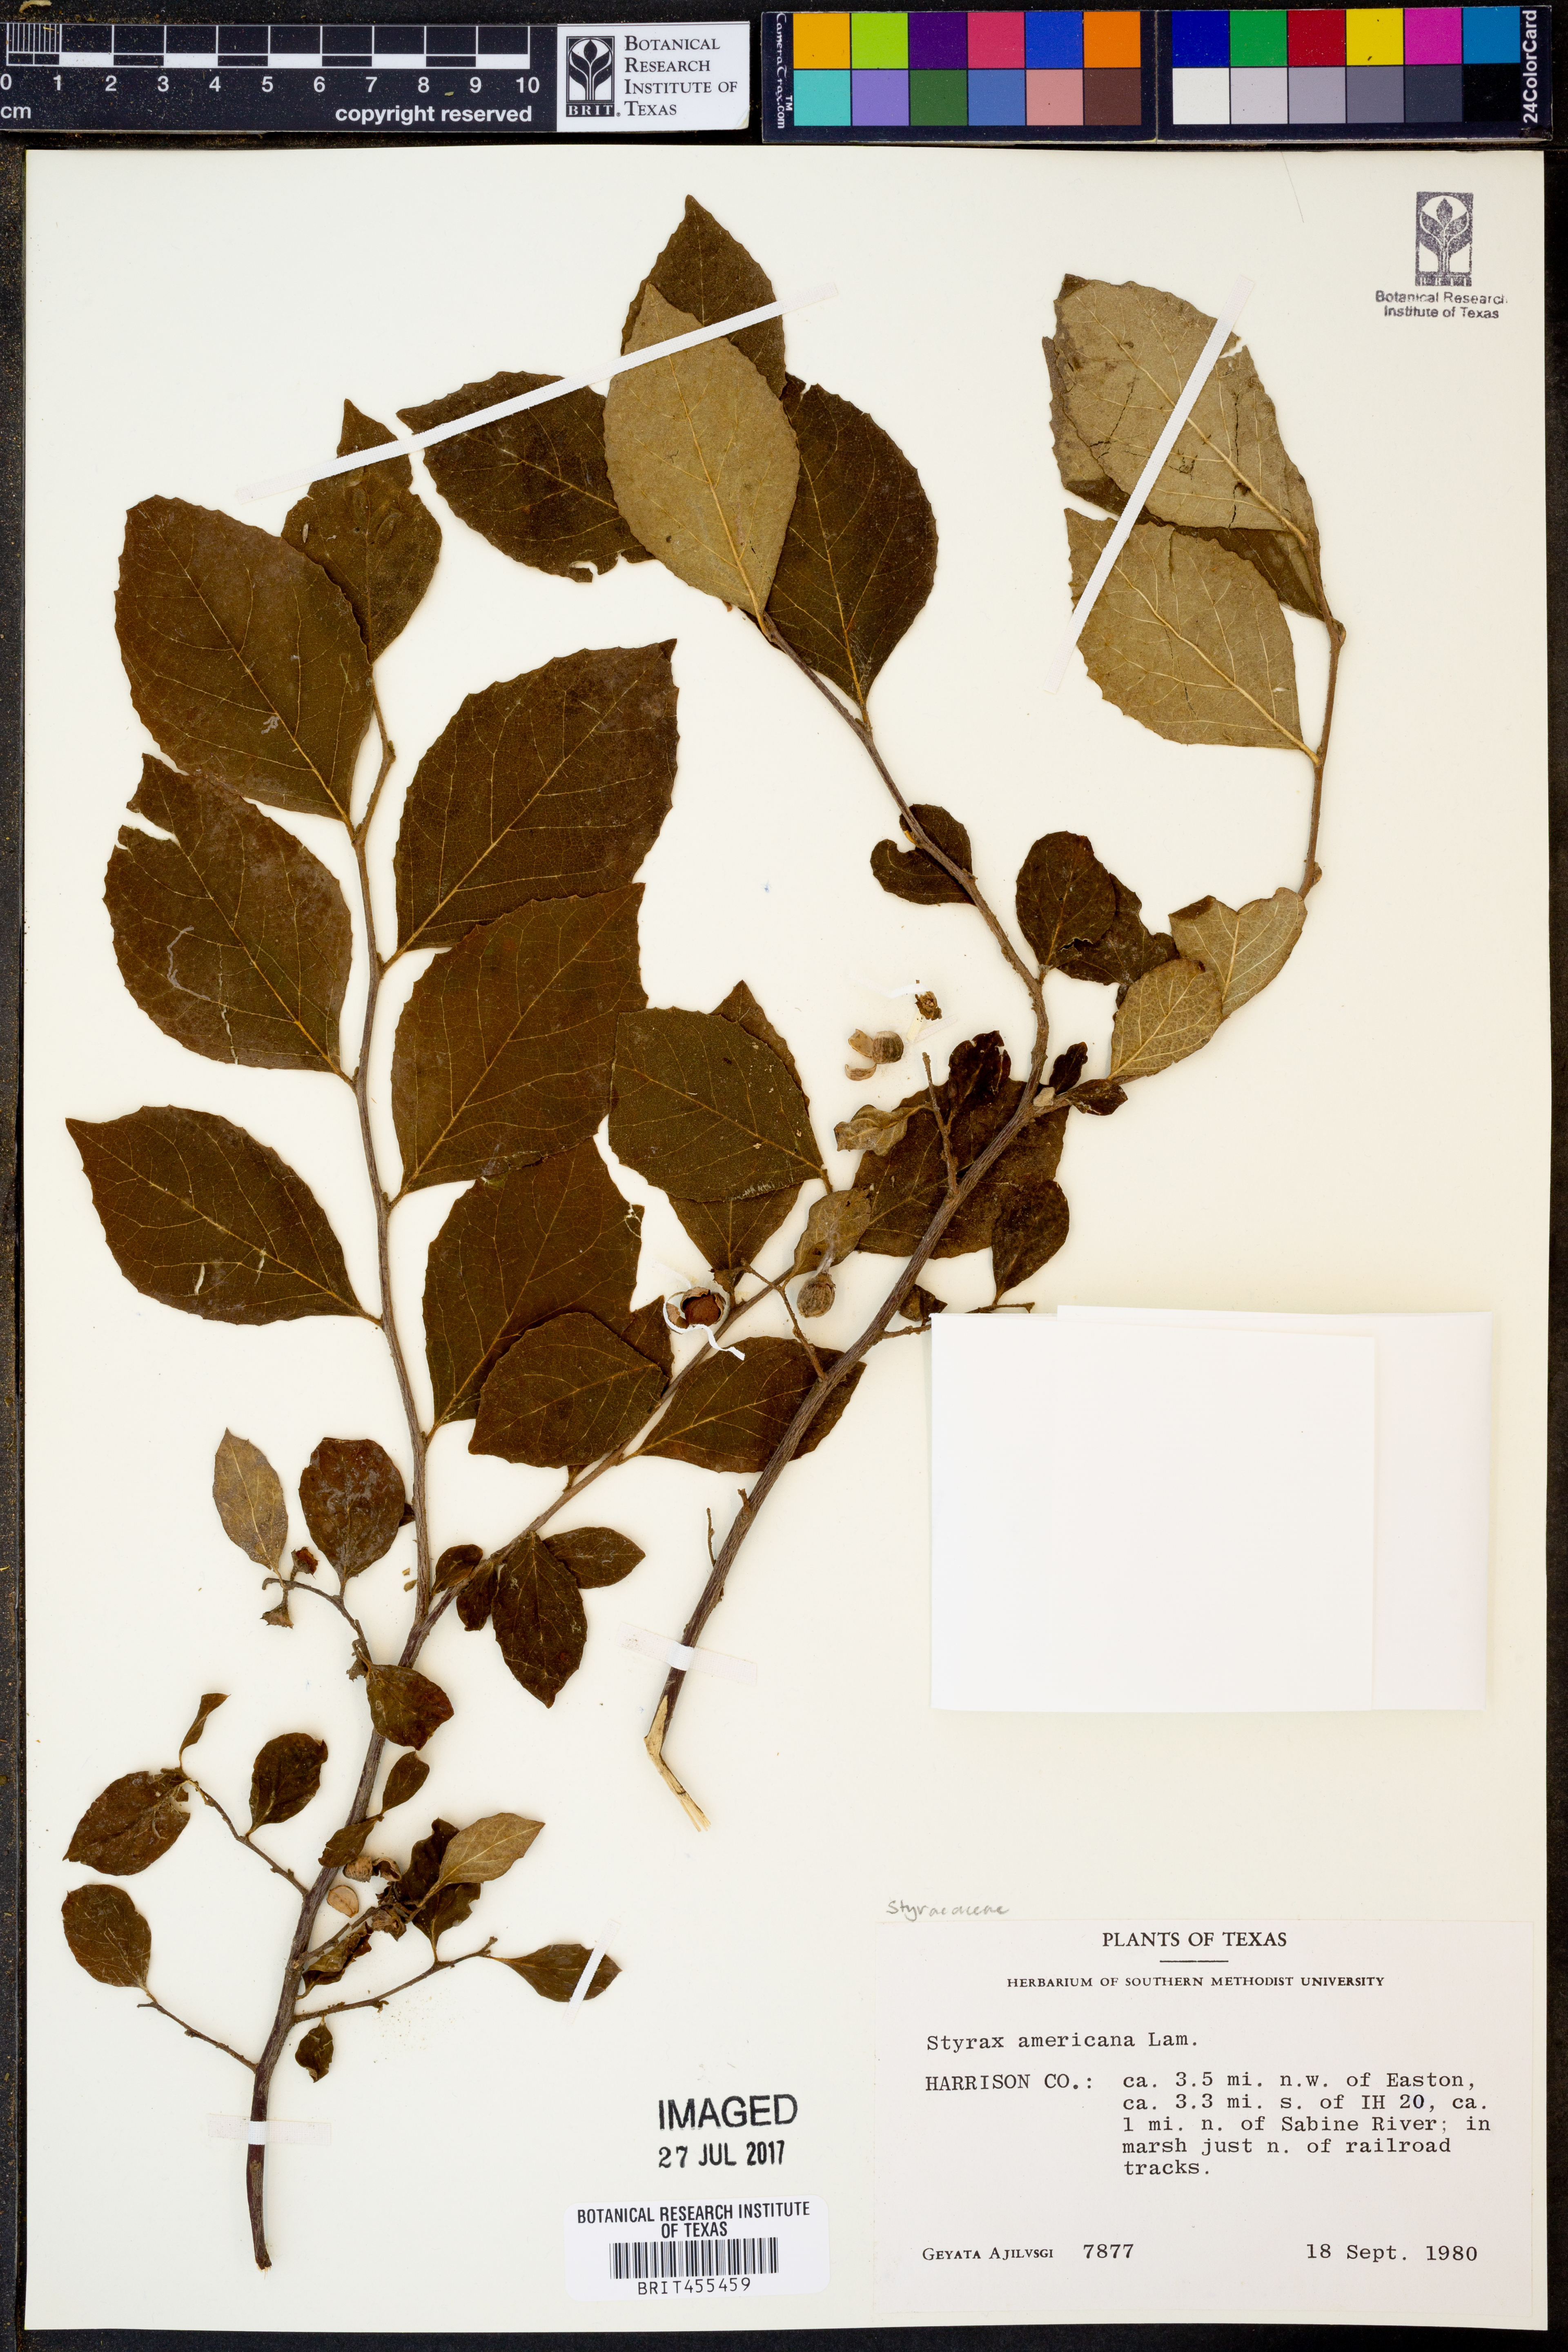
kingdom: Plantae
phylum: Tracheophyta
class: Magnoliopsida
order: Ericales
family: Styracaceae
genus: Styrax
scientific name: Styrax americanus
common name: American snowbell
